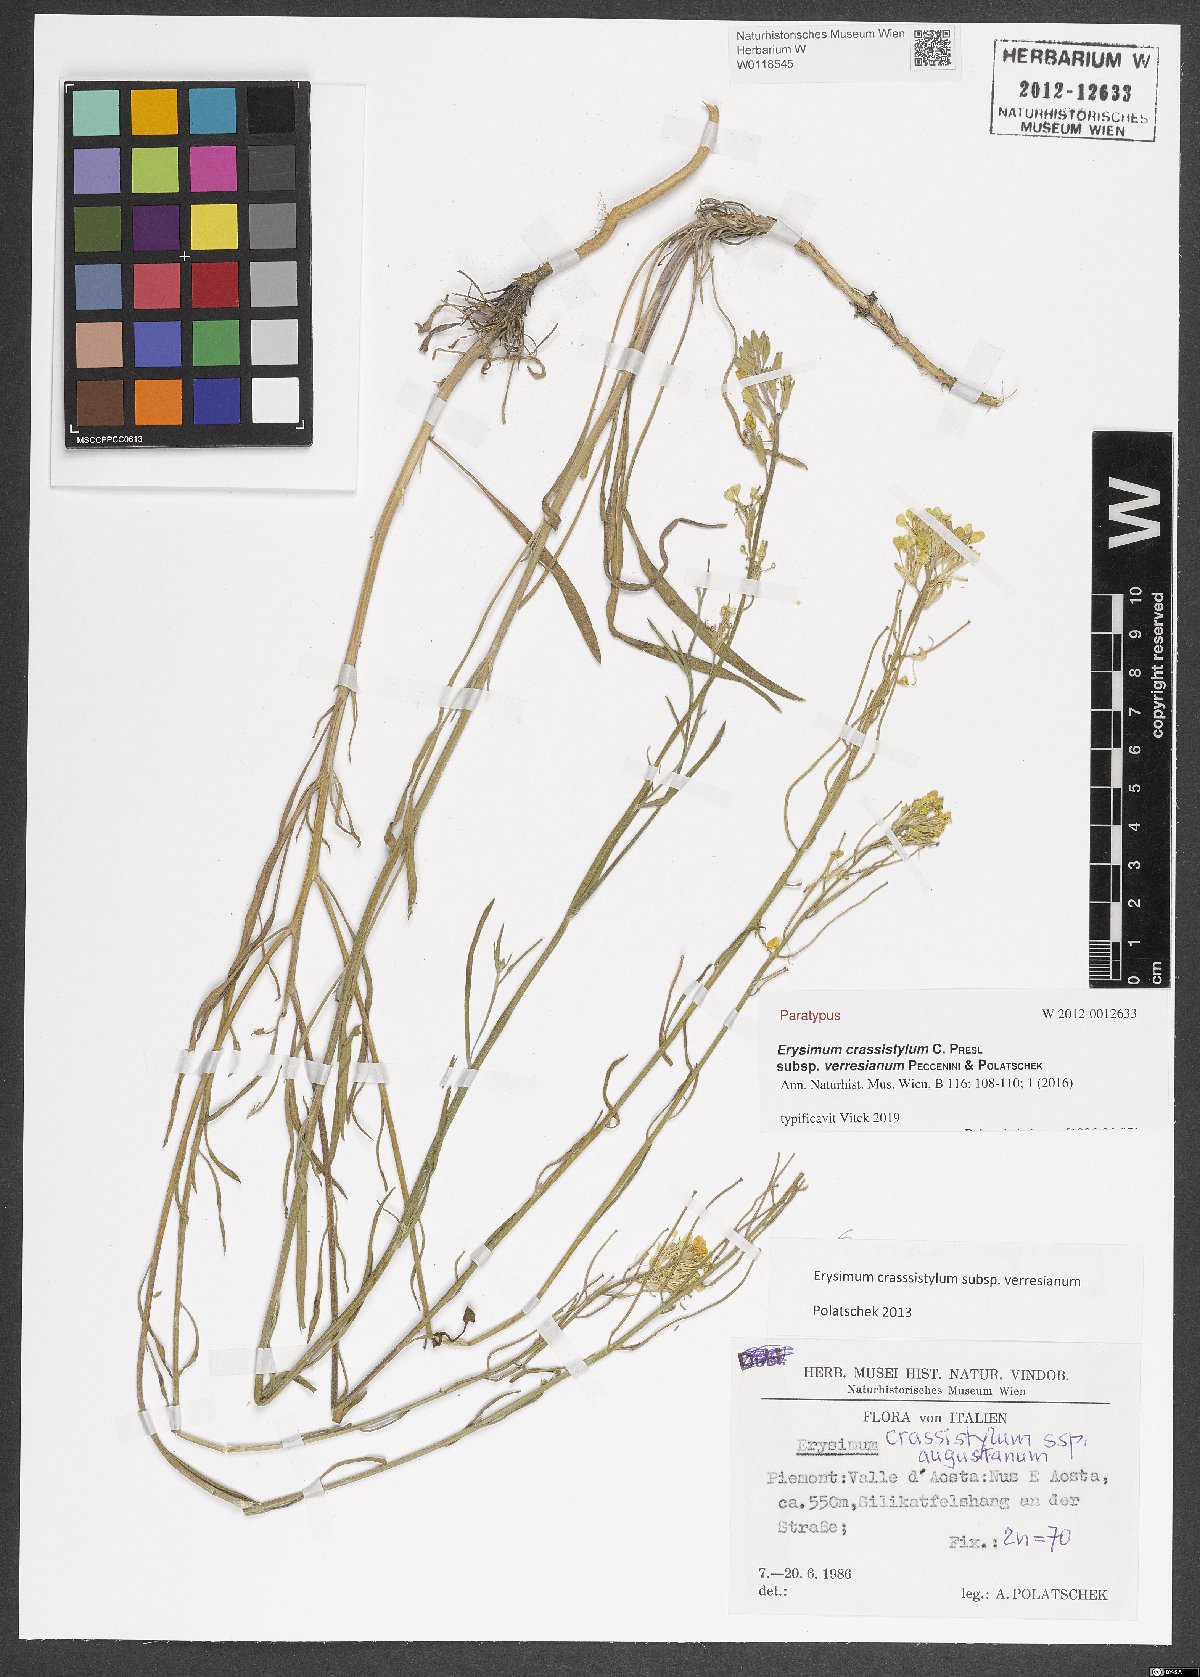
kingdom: Plantae
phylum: Tracheophyta
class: Magnoliopsida
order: Brassicales
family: Brassicaceae
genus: Erysimum
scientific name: Erysimum crassistylum
